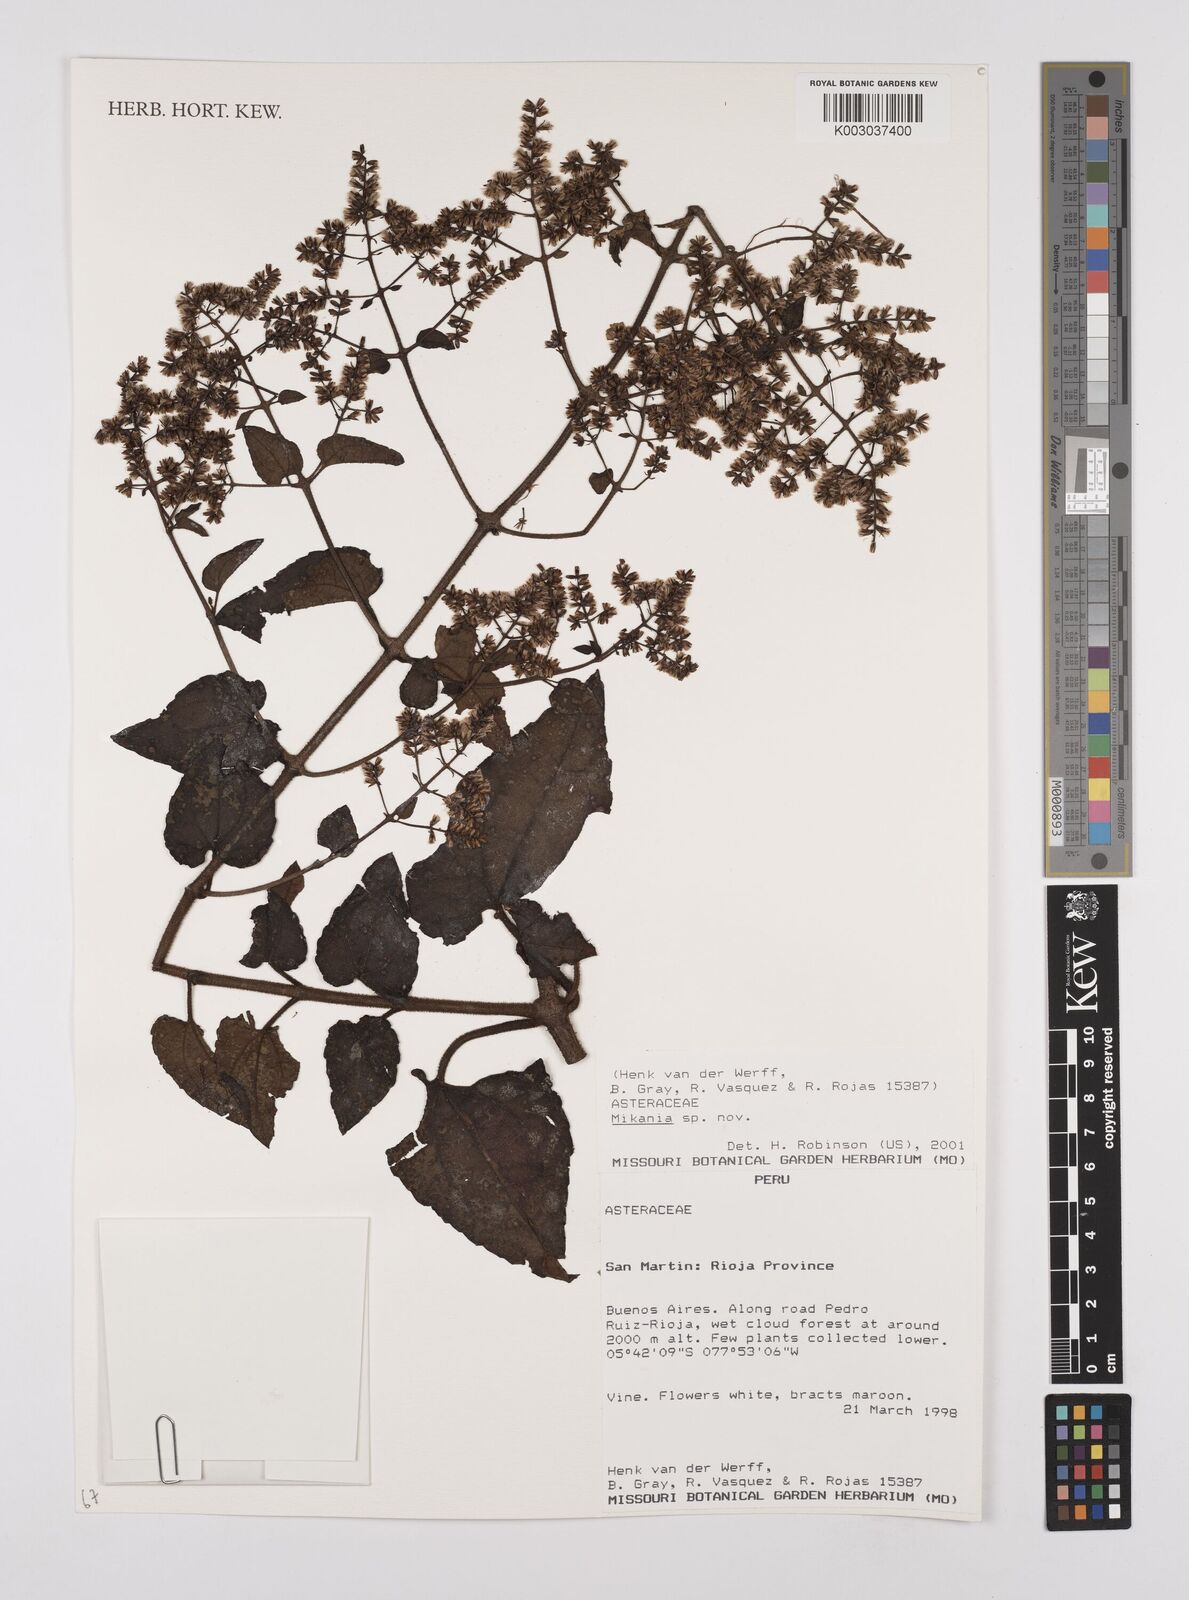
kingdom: Plantae
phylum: Tracheophyta
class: Magnoliopsida
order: Asterales
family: Asteraceae
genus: Mikania
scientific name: Mikania
